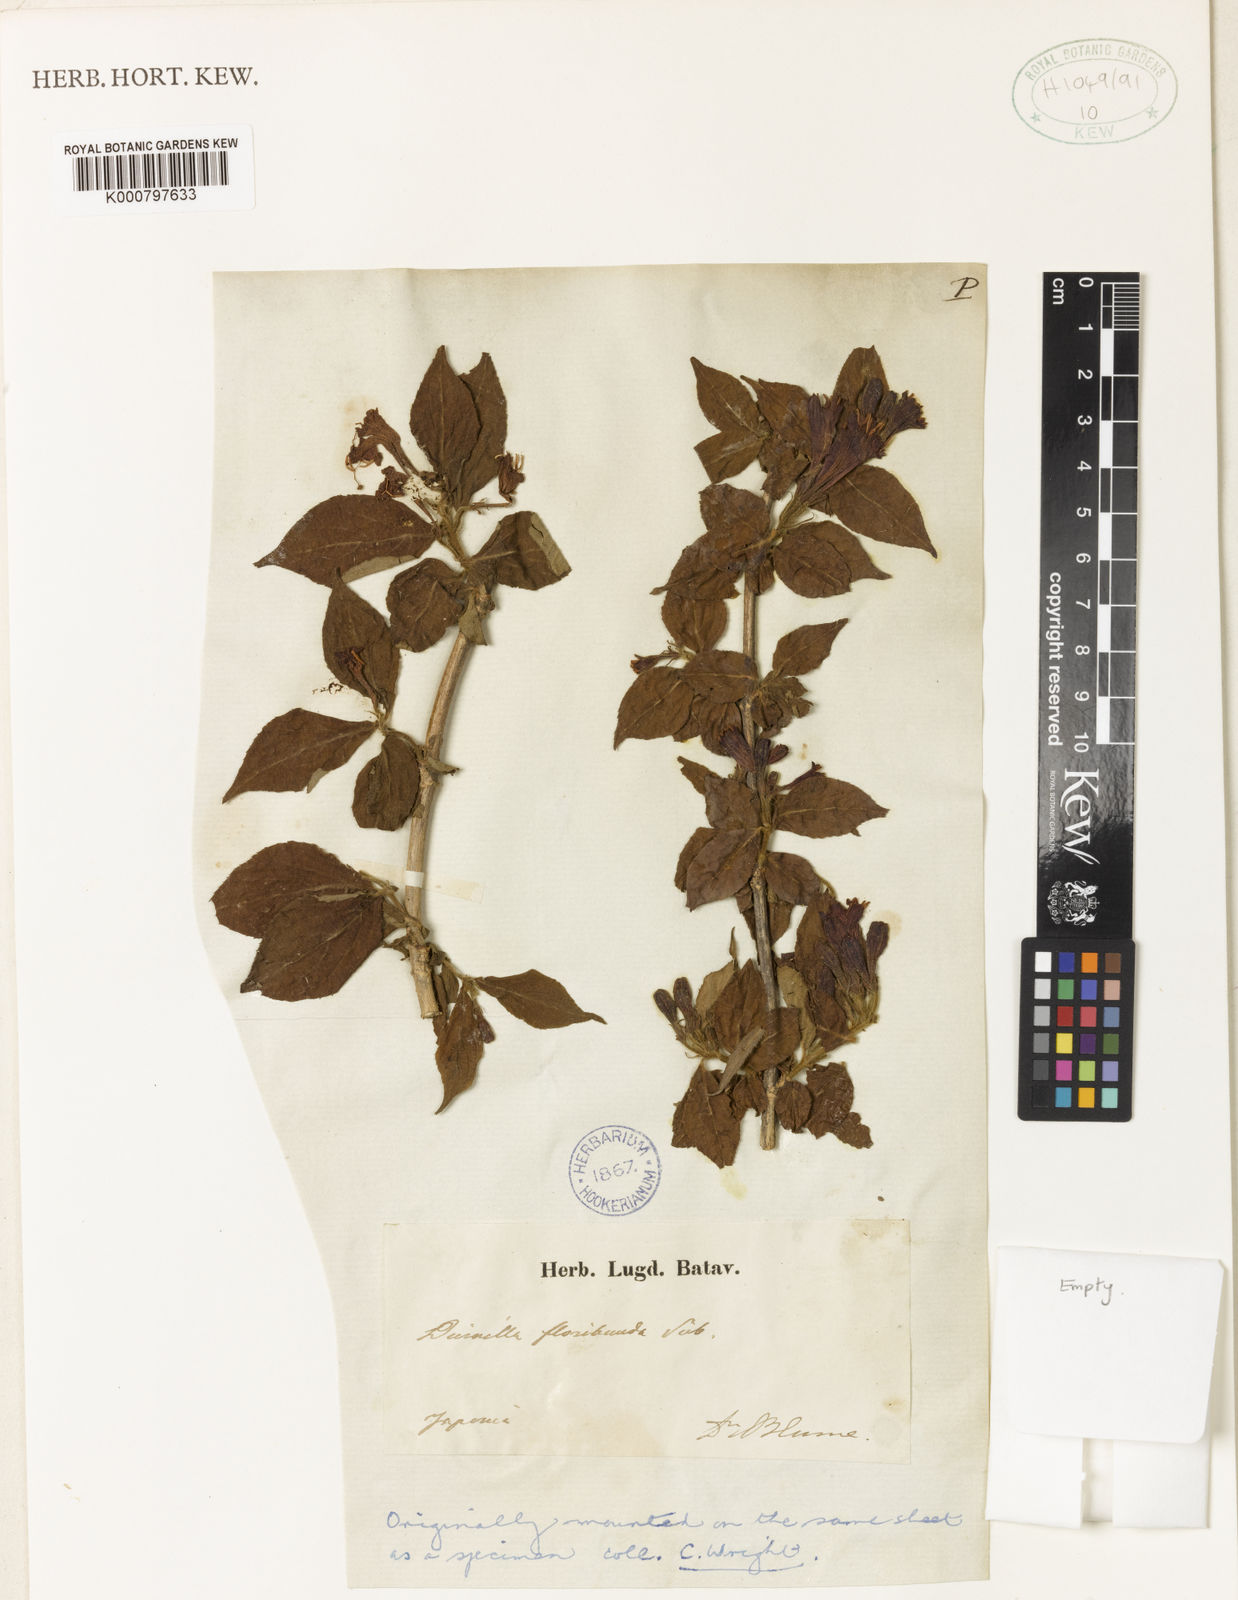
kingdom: Plantae
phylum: Tracheophyta
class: Magnoliopsida
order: Dipsacales
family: Caprifoliaceae
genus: Weigela
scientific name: Weigela
